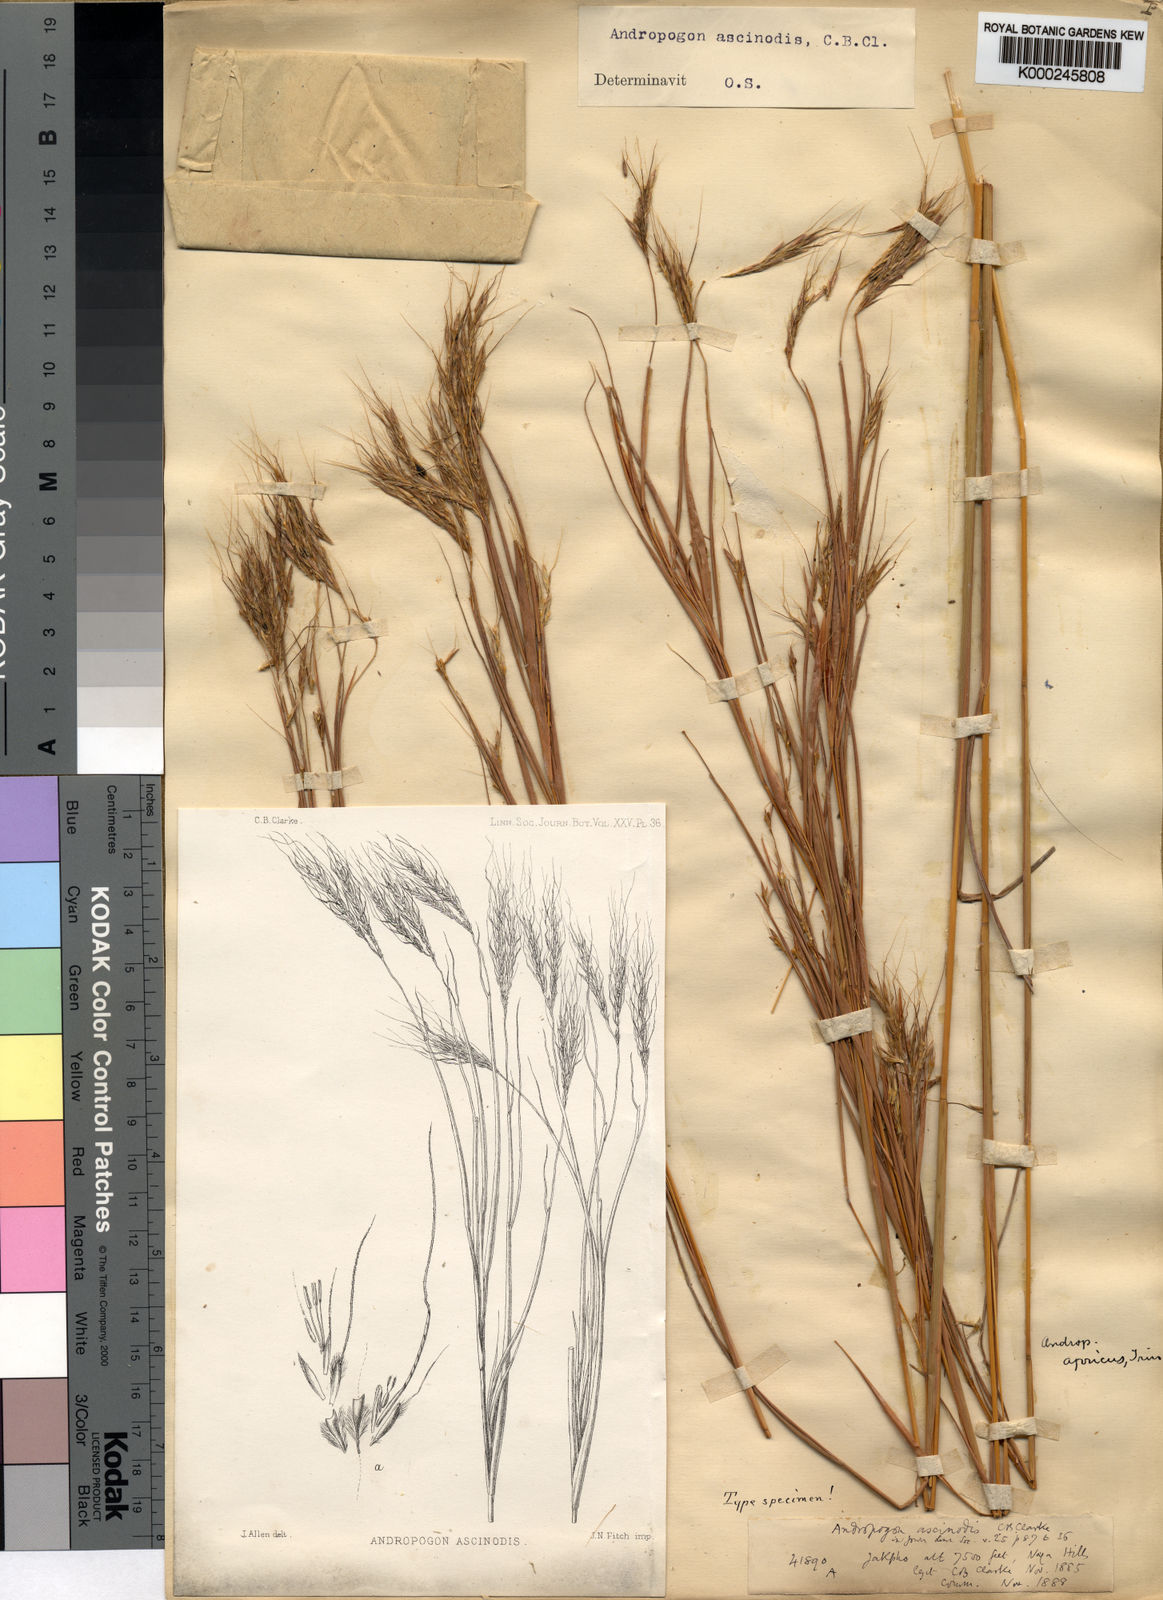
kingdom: Plantae
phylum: Tracheophyta
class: Liliopsida
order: Poales
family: Poaceae
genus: Andropogon
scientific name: Andropogon chinensis
